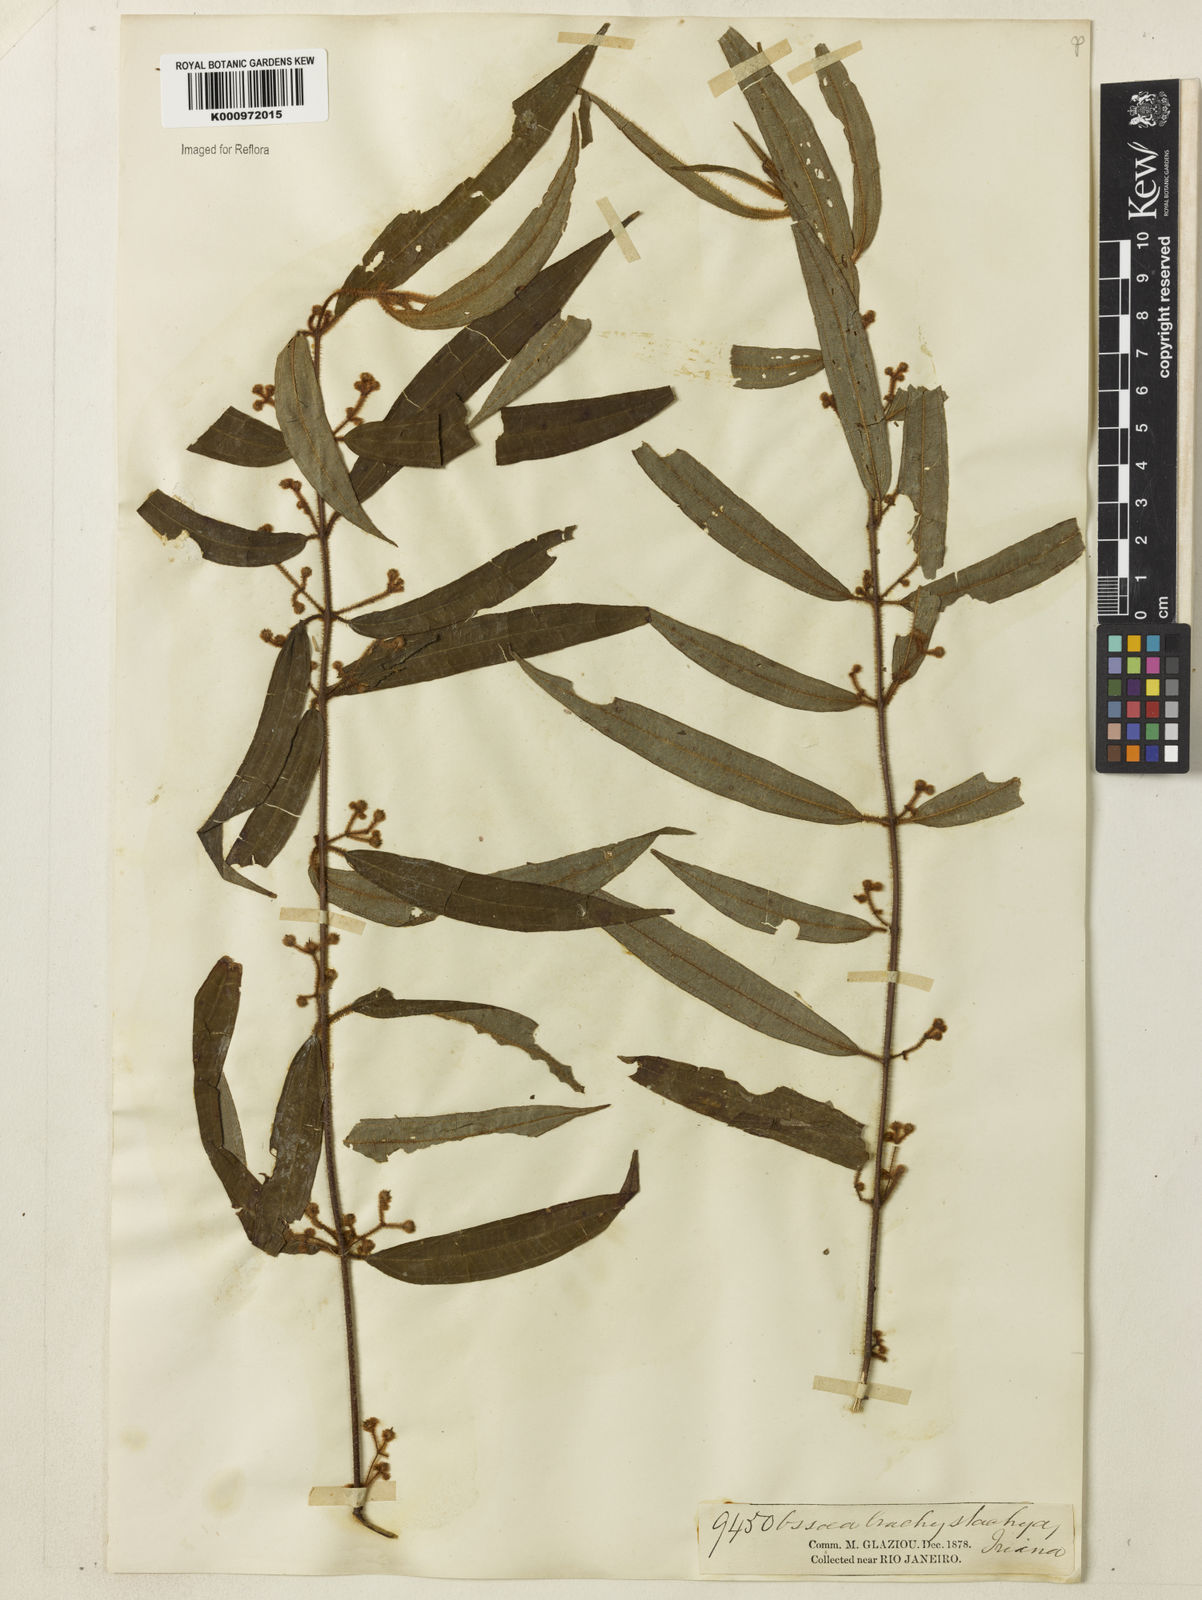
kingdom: Plantae
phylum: Tracheophyta
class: Magnoliopsida
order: Myrtales
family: Melastomataceae
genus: Miconia
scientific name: Miconia amygdaloides
